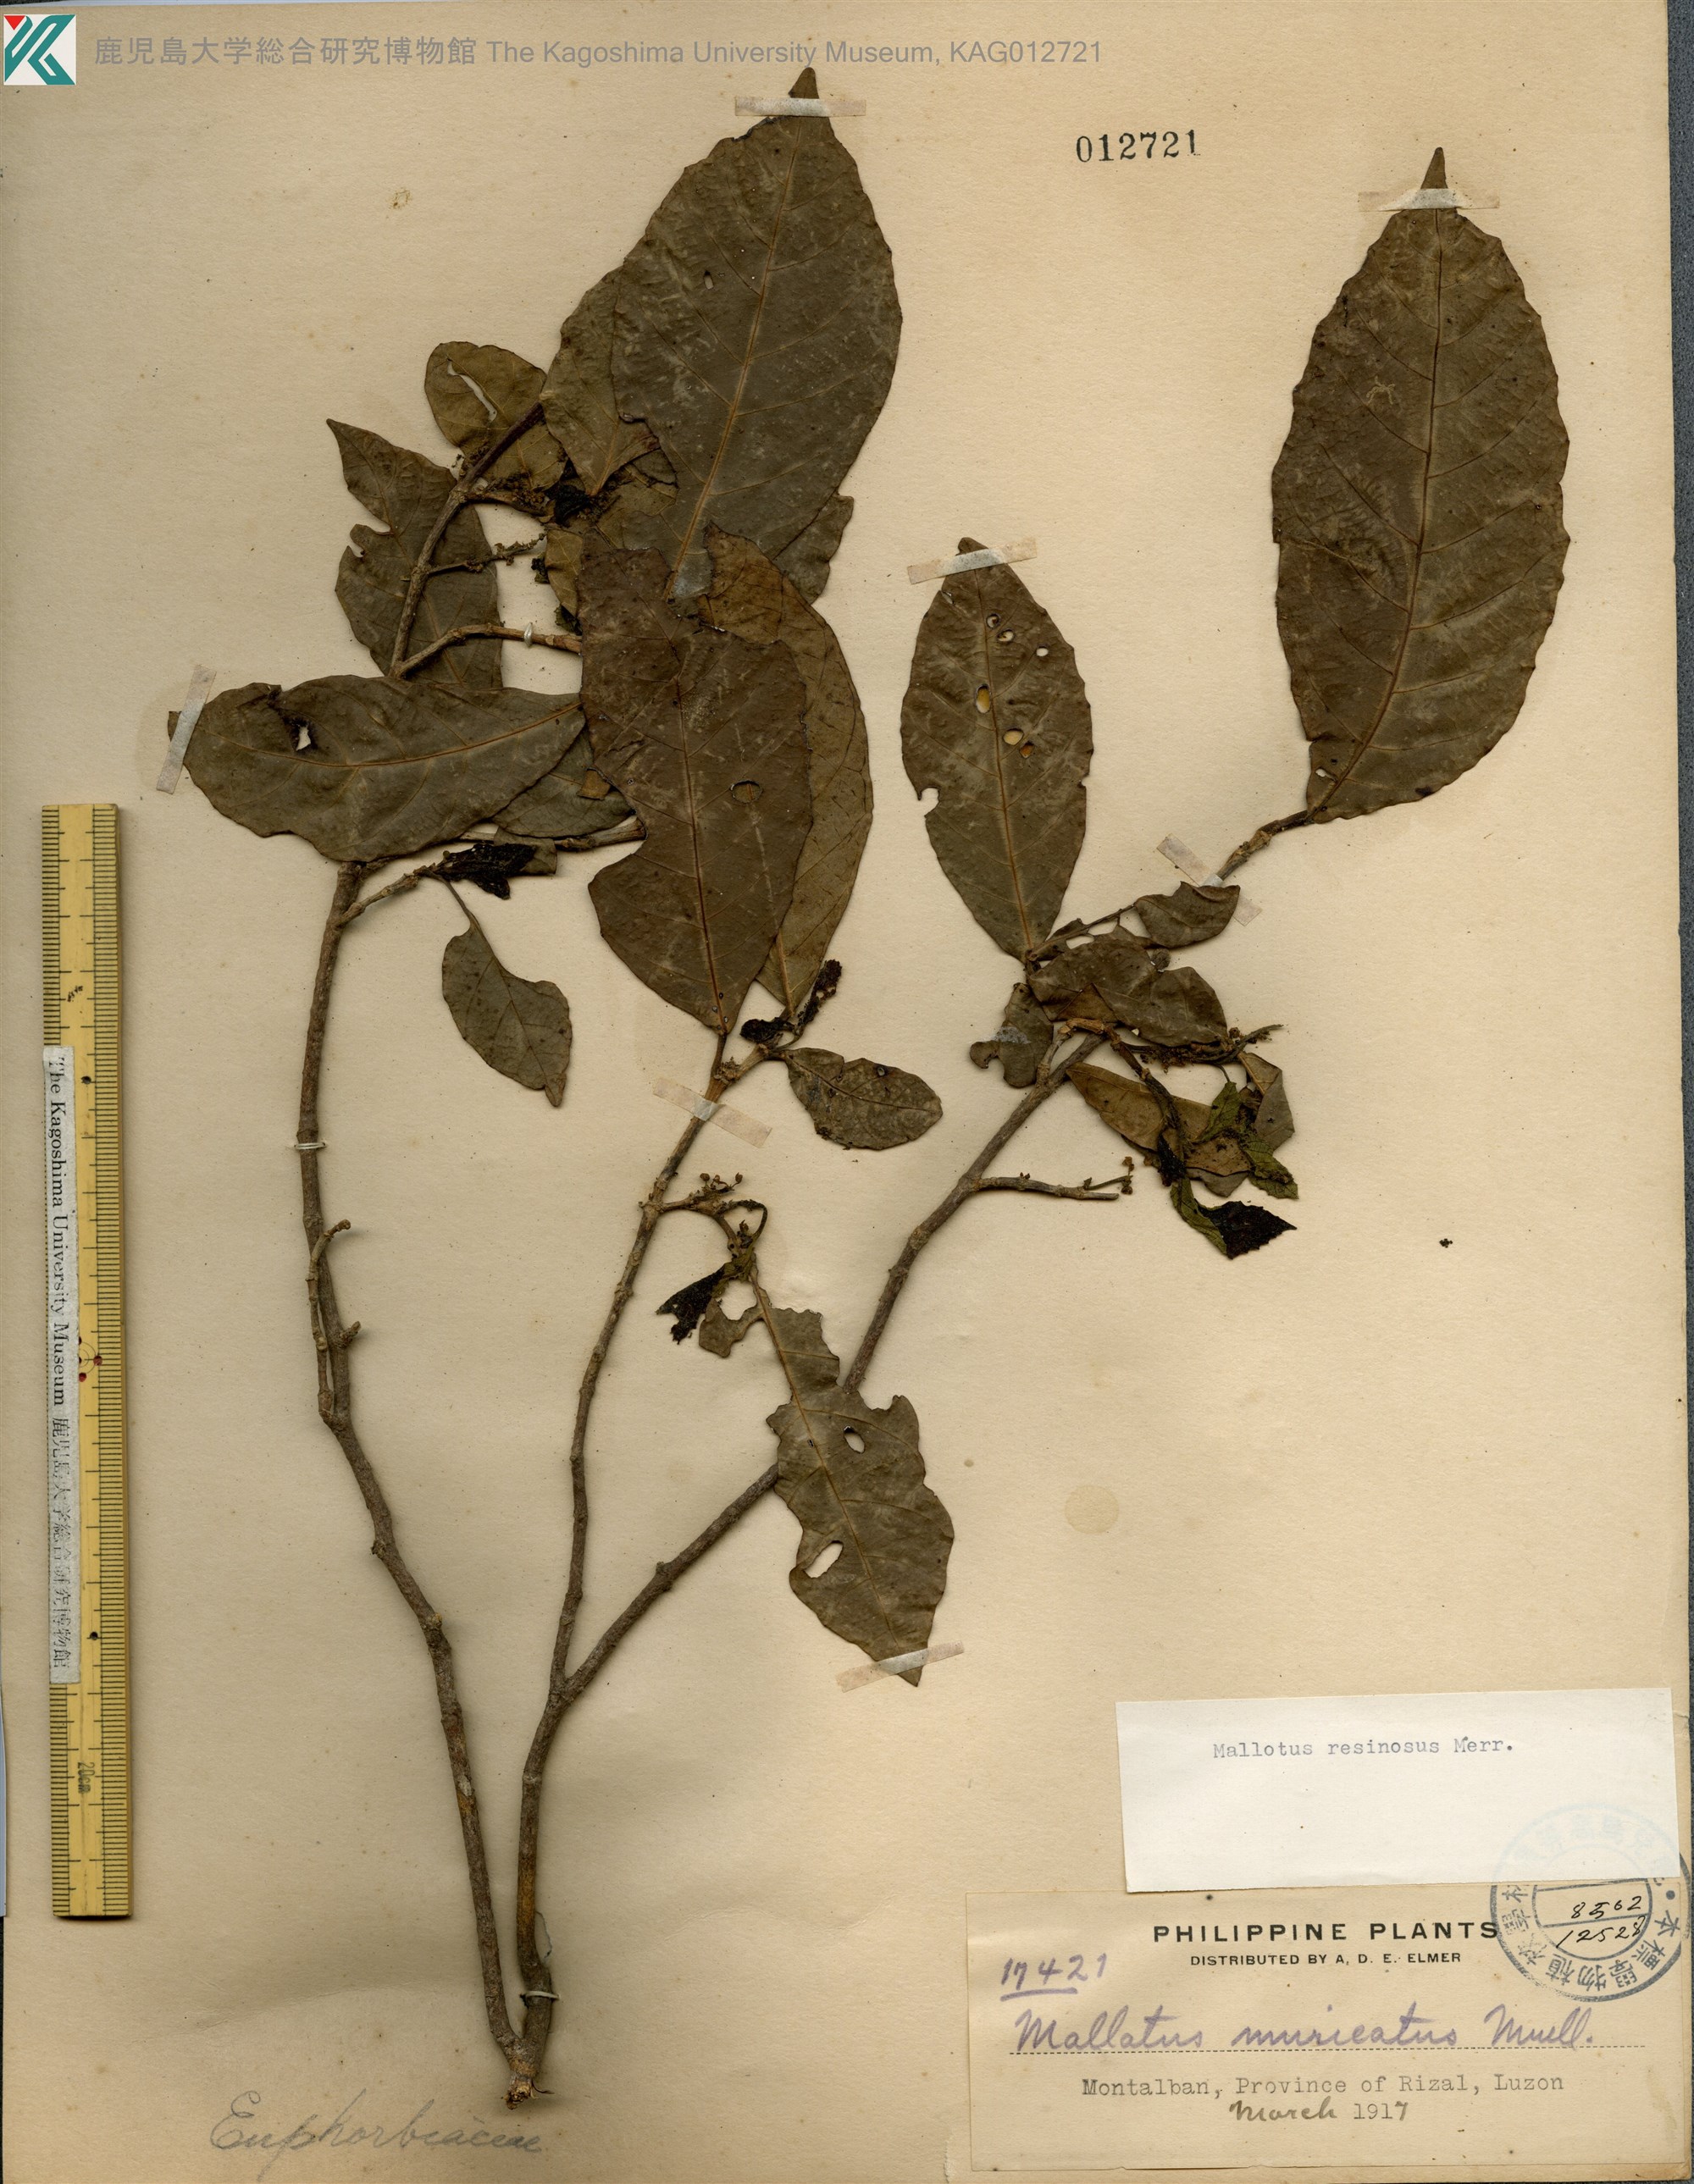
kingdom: Plantae
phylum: Tracheophyta
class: Magnoliopsida
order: Malpighiales
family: Euphorbiaceae
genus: Mallotus
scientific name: Mallotus resinosus
